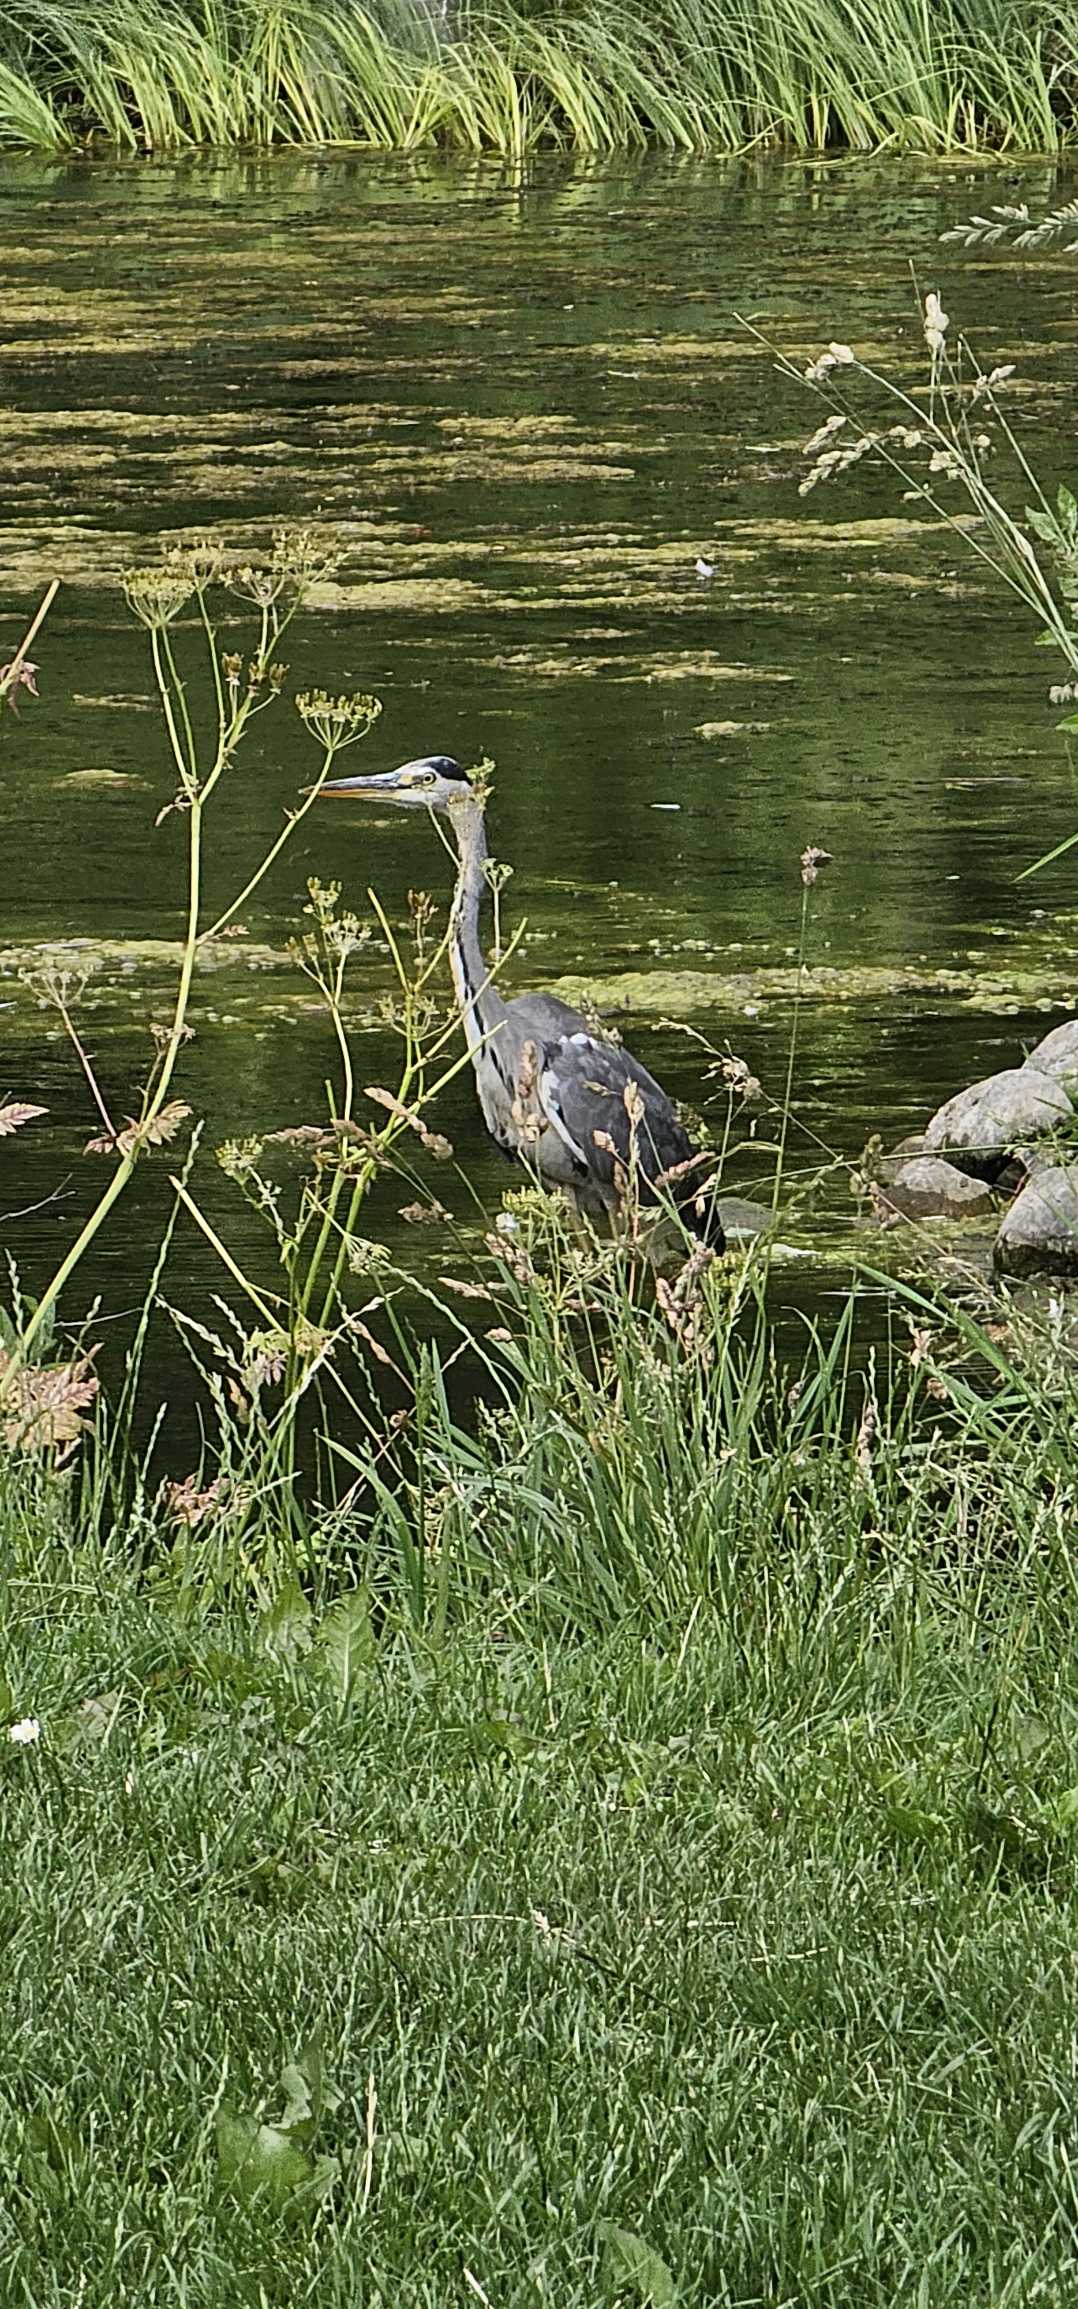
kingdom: Animalia
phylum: Chordata
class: Aves
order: Pelecaniformes
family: Ardeidae
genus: Ardea
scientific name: Ardea cinerea
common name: Fiskehejre
